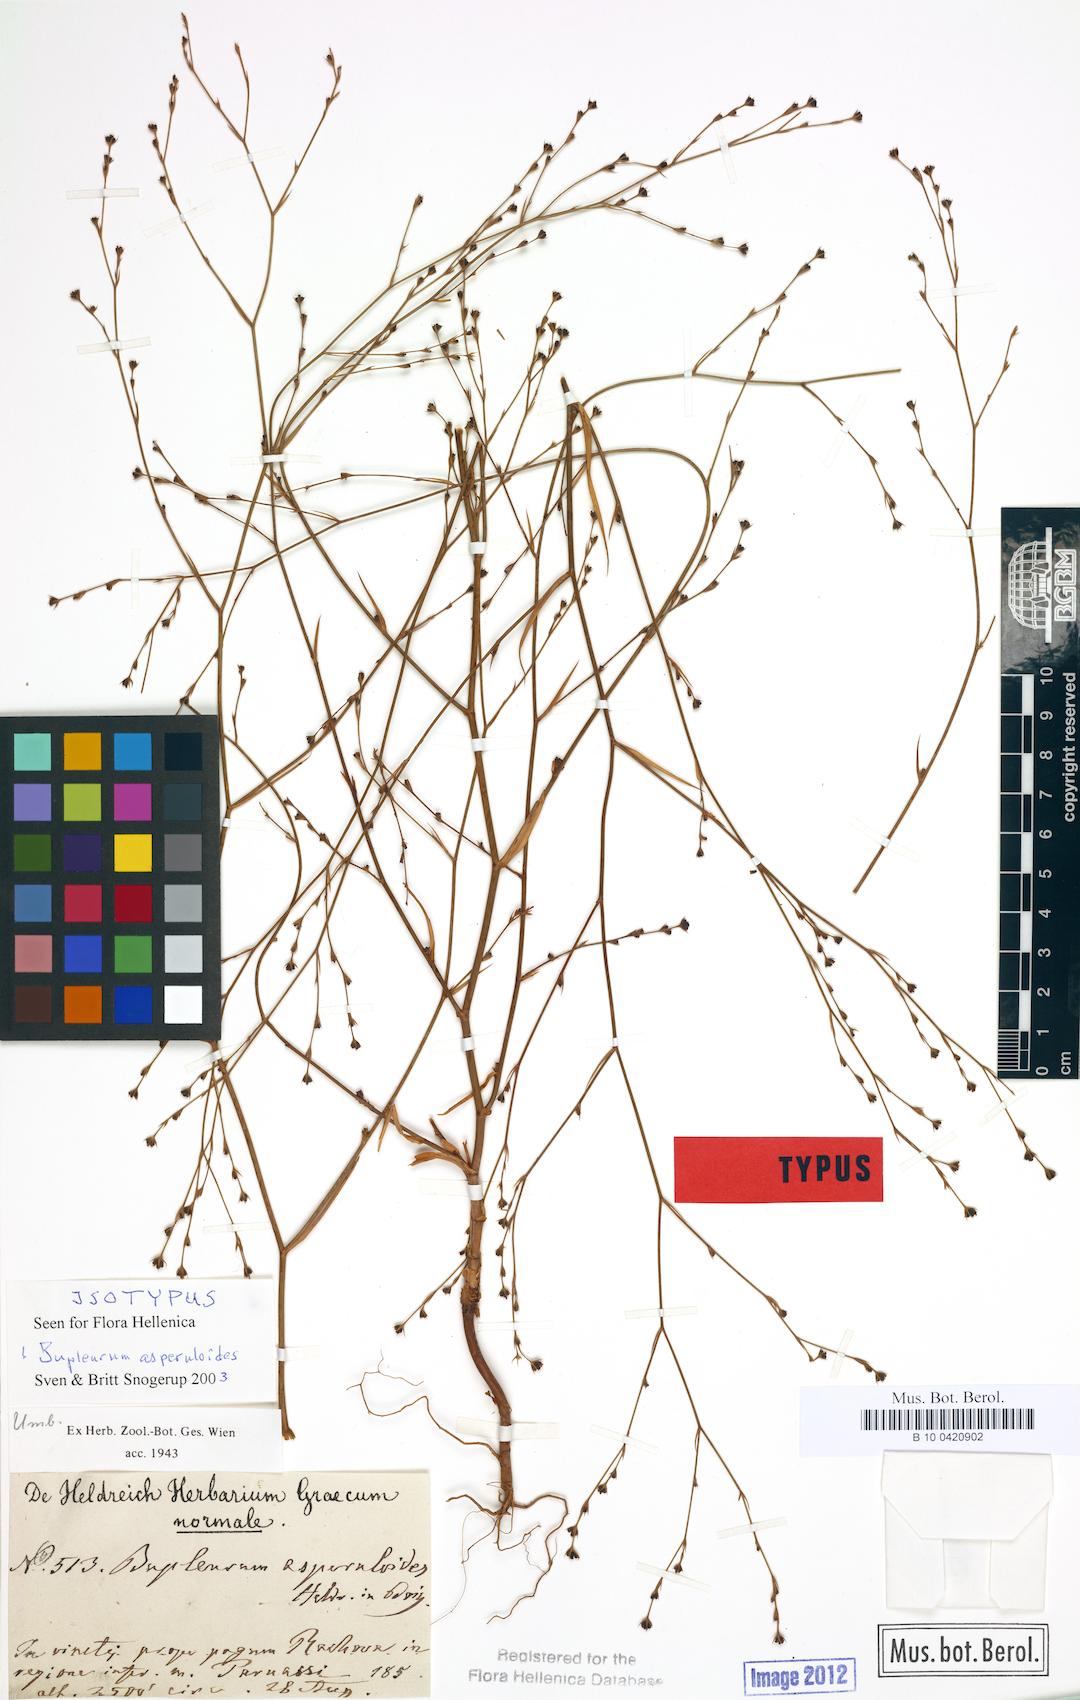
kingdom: Plantae
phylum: Tracheophyta
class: Magnoliopsida
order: Apiales
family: Apiaceae
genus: Bupleurum
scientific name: Bupleurum asperuloides
